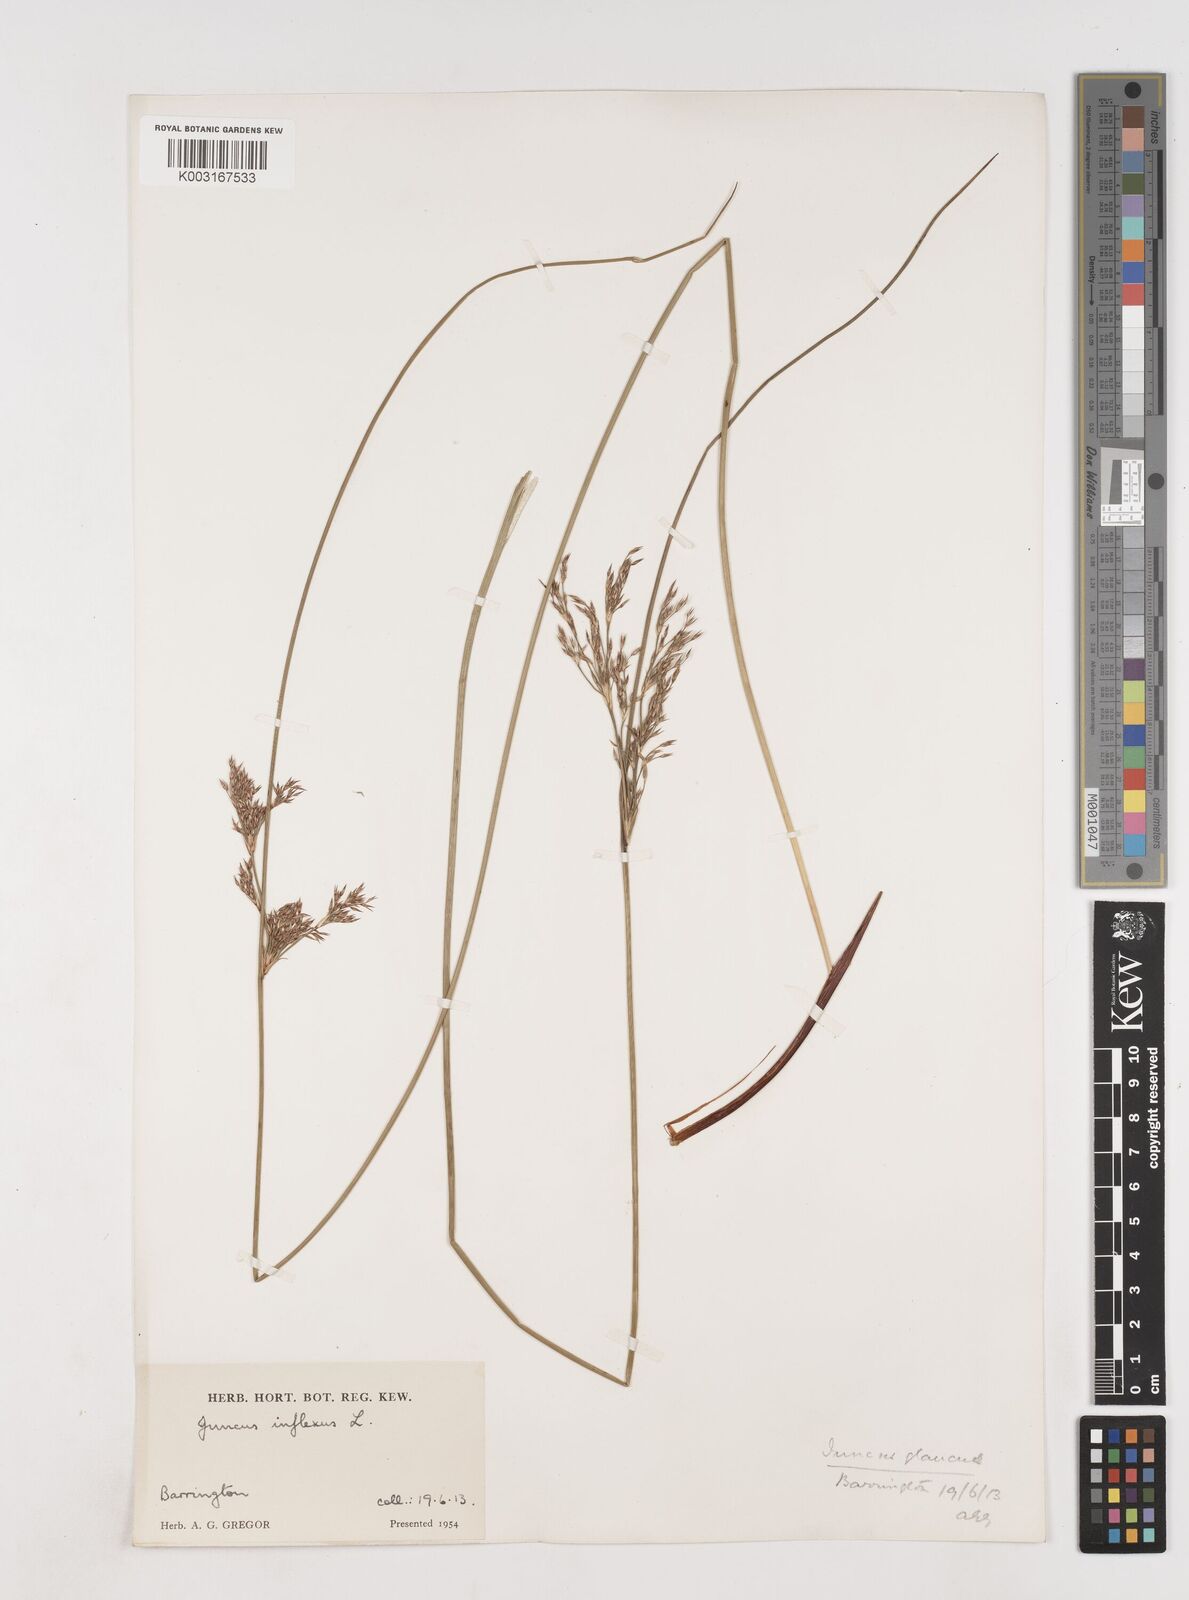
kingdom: Plantae
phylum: Tracheophyta
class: Liliopsida
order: Poales
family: Juncaceae
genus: Juncus
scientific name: Juncus inflexus
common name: Hard rush
